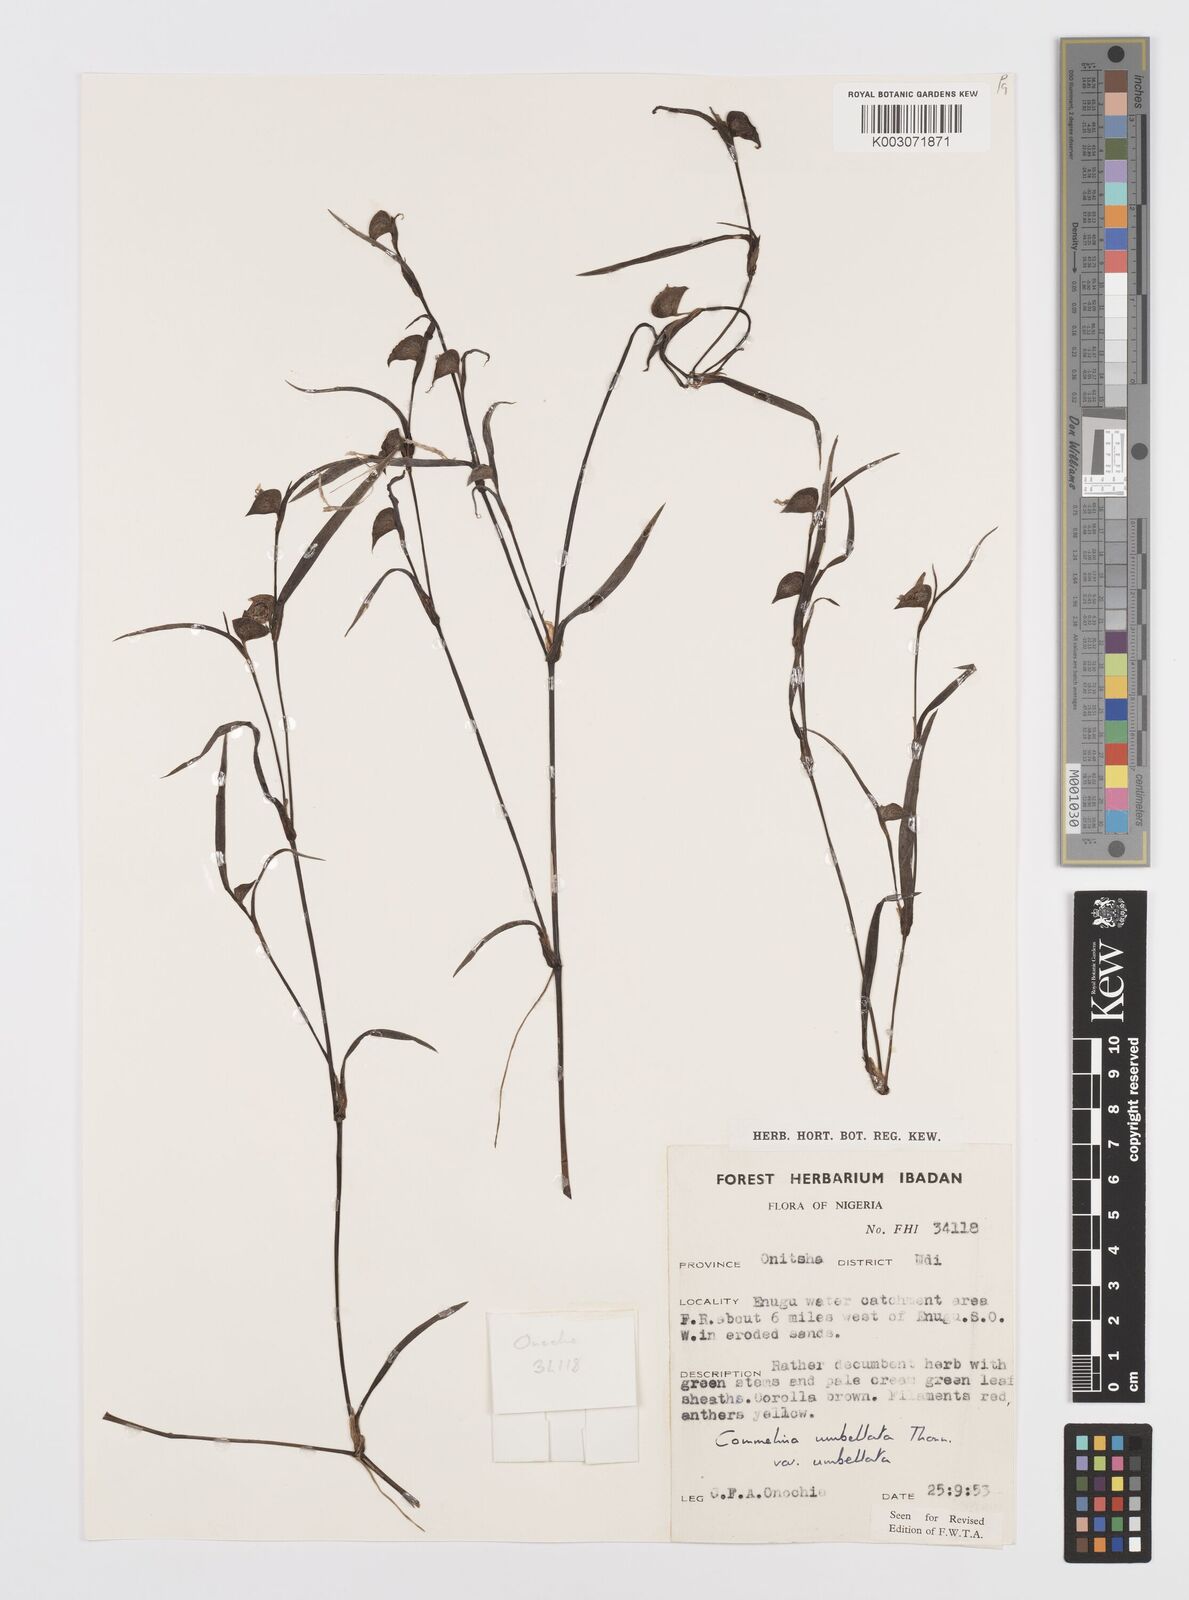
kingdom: Plantae
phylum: Tracheophyta
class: Liliopsida
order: Commelinales
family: Commelinaceae
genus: Commelina
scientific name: Commelina
